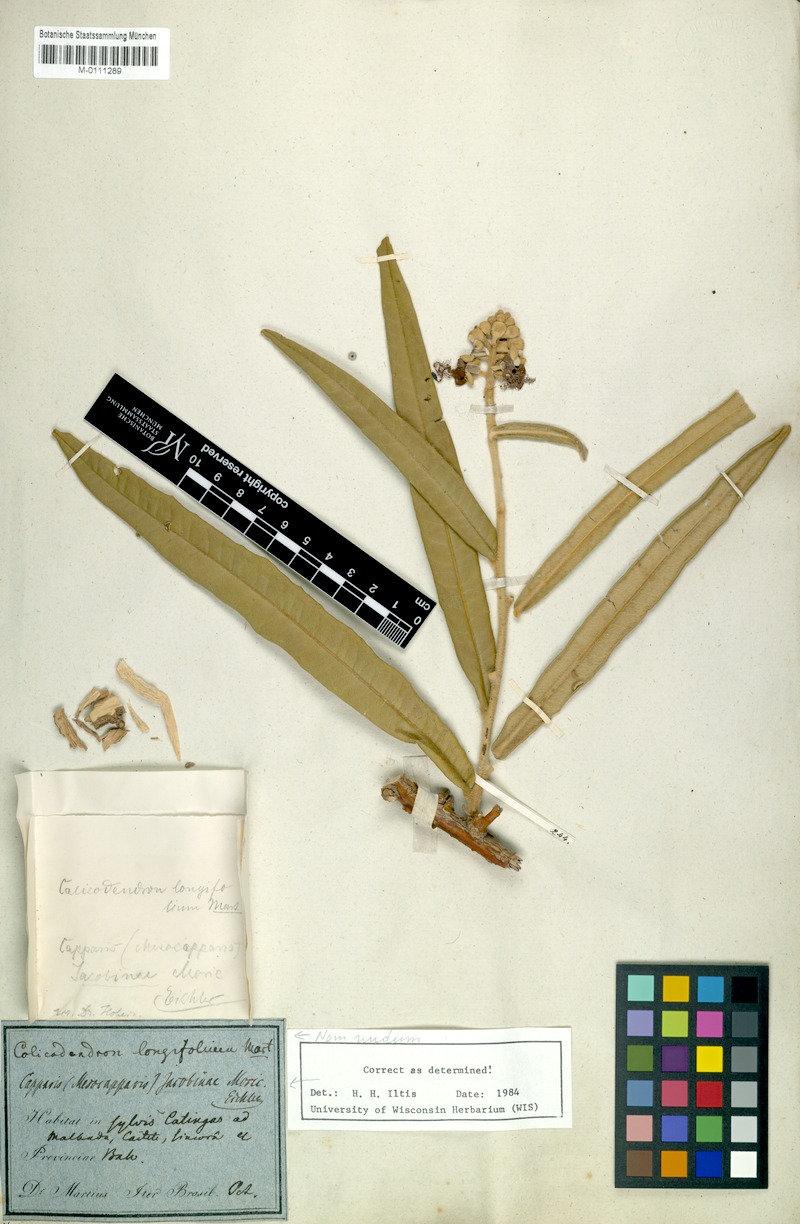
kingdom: Plantae
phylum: Tracheophyta
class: Magnoliopsida
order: Brassicales
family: Capparaceae
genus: Neocalyptrocalyx
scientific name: Neocalyptrocalyx longifolium
